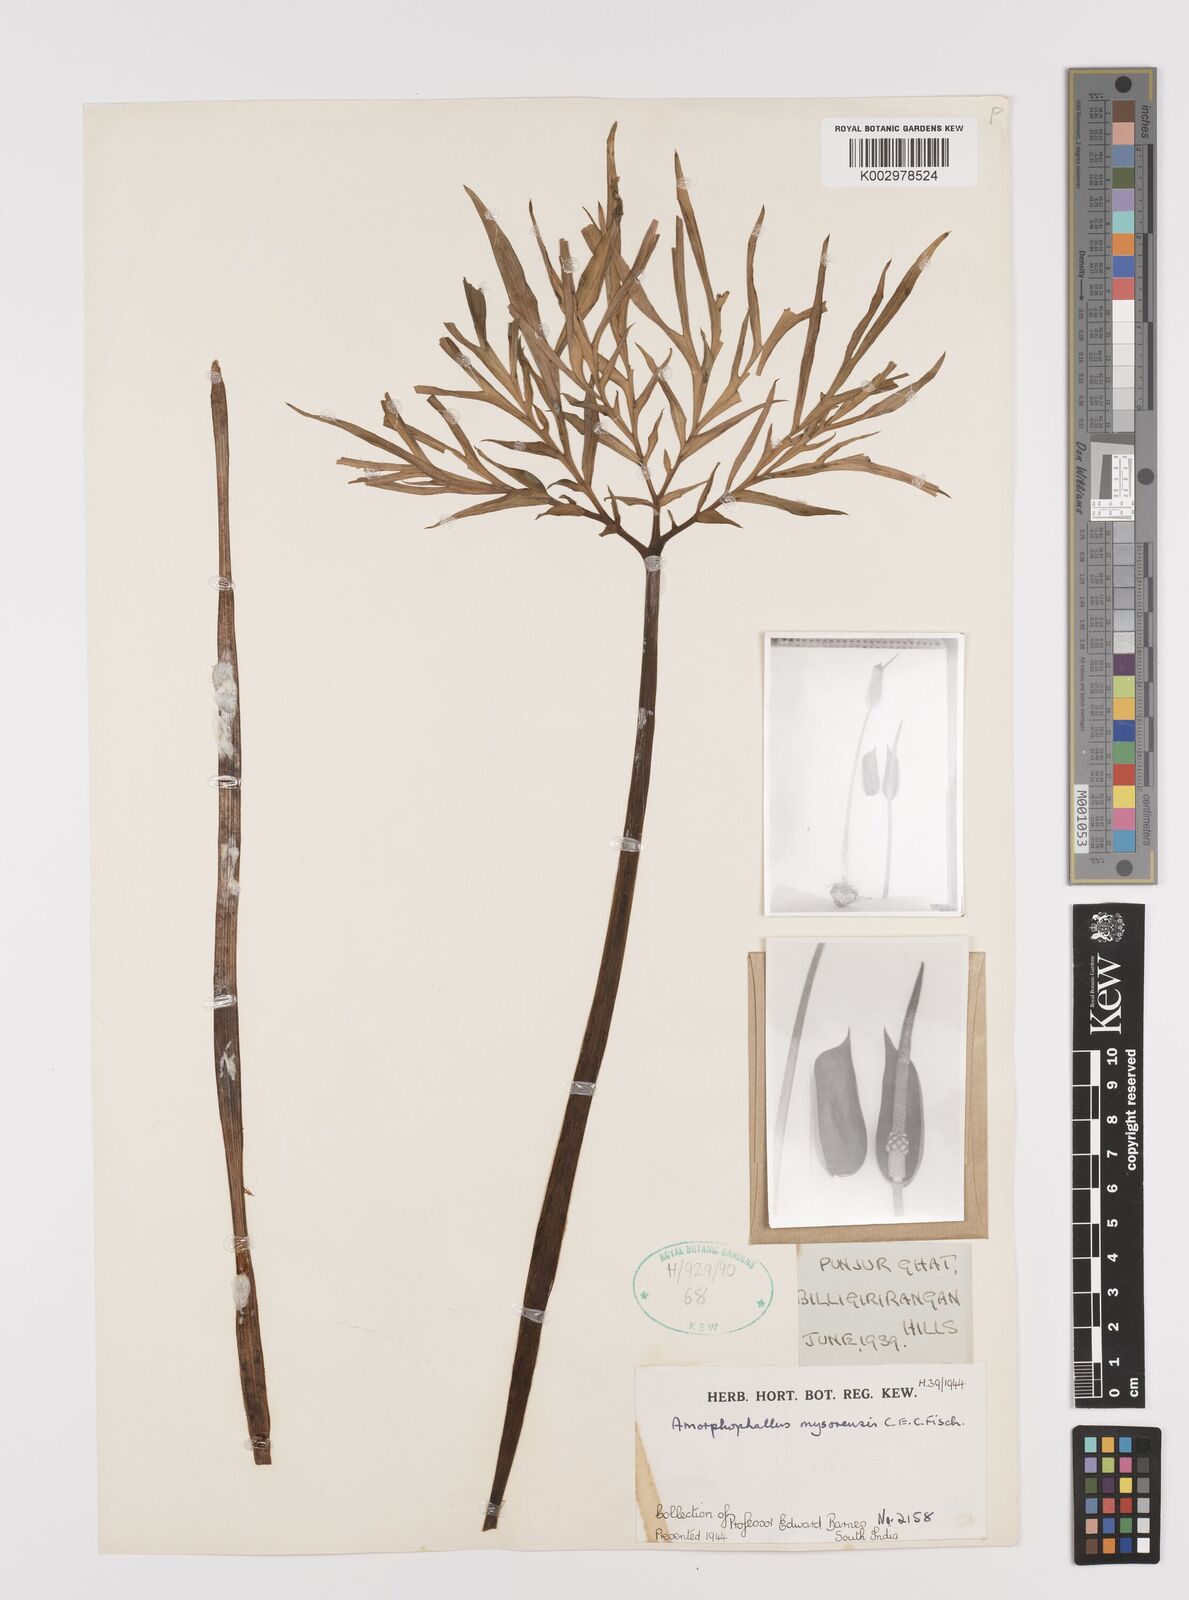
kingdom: Plantae
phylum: Tracheophyta
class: Liliopsida
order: Alismatales
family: Araceae
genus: Amorphophallus
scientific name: Amorphophallus mysorensis
